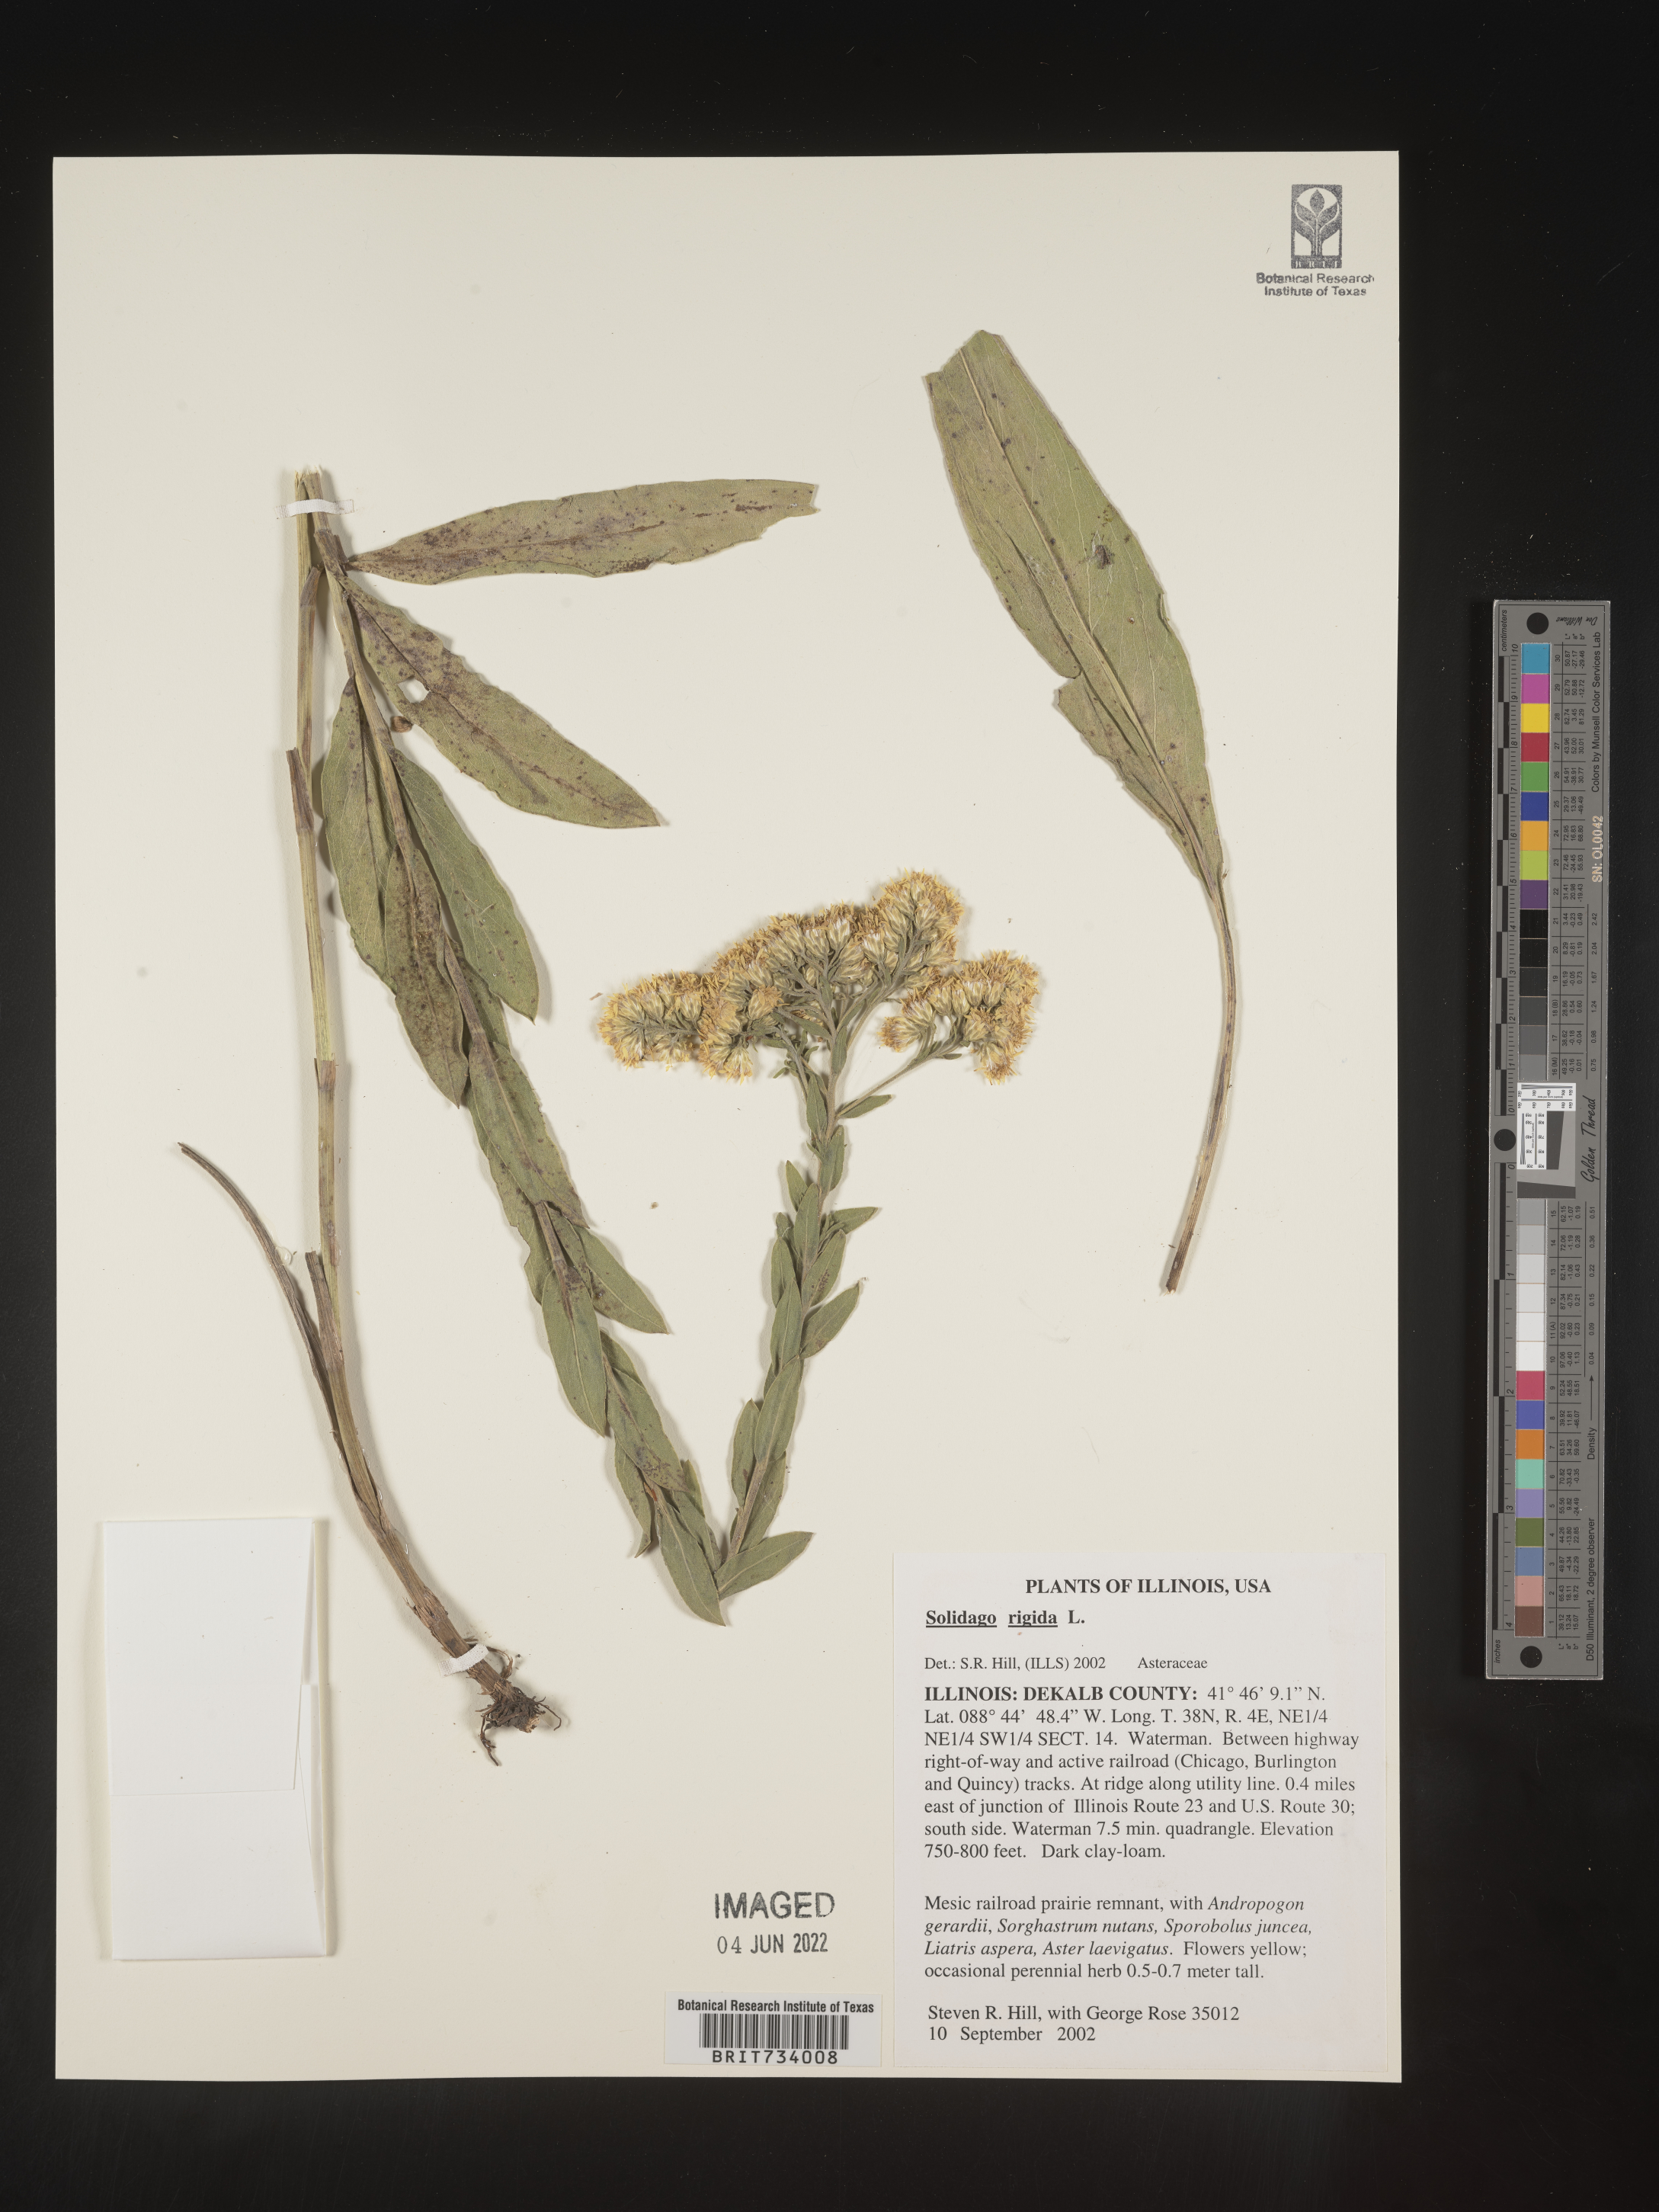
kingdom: Plantae
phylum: Tracheophyta
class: Magnoliopsida
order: Asterales
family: Asteraceae
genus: Solidago
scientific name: Solidago rigida
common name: Rigid goldenrod
